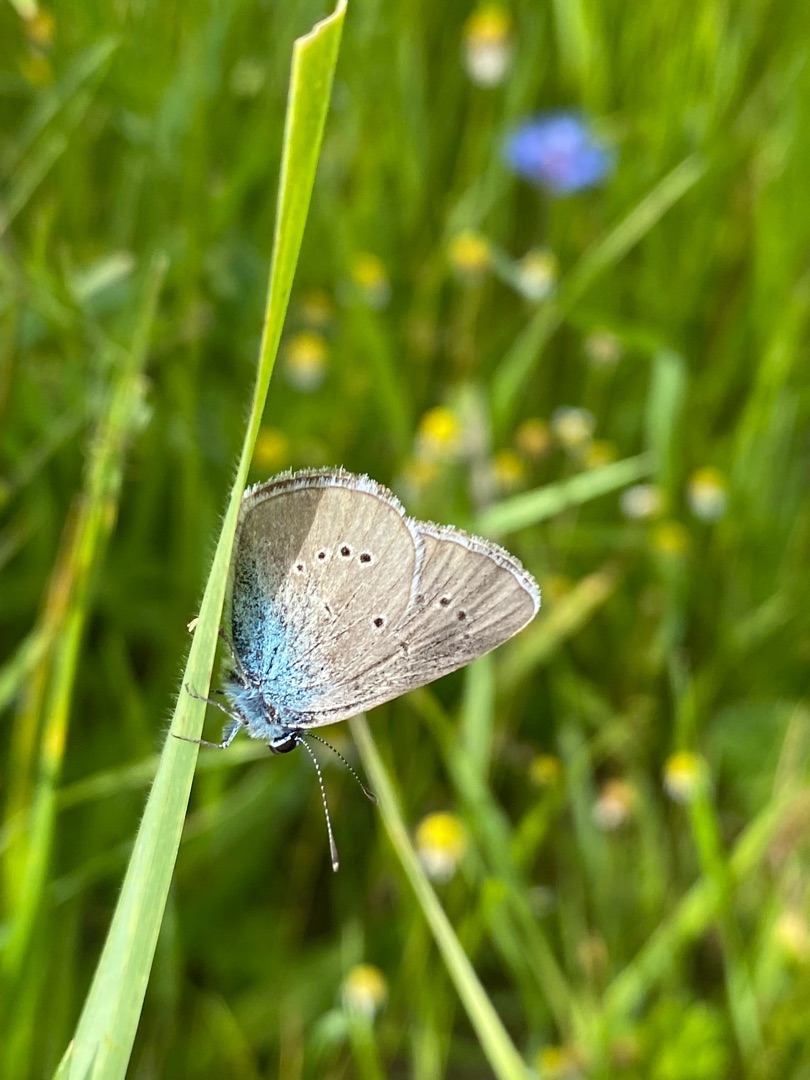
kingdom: Animalia
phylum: Arthropoda
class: Insecta
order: Lepidoptera
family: Lycaenidae
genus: Cyaniris
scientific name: Cyaniris semiargus
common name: Engblåfugl
